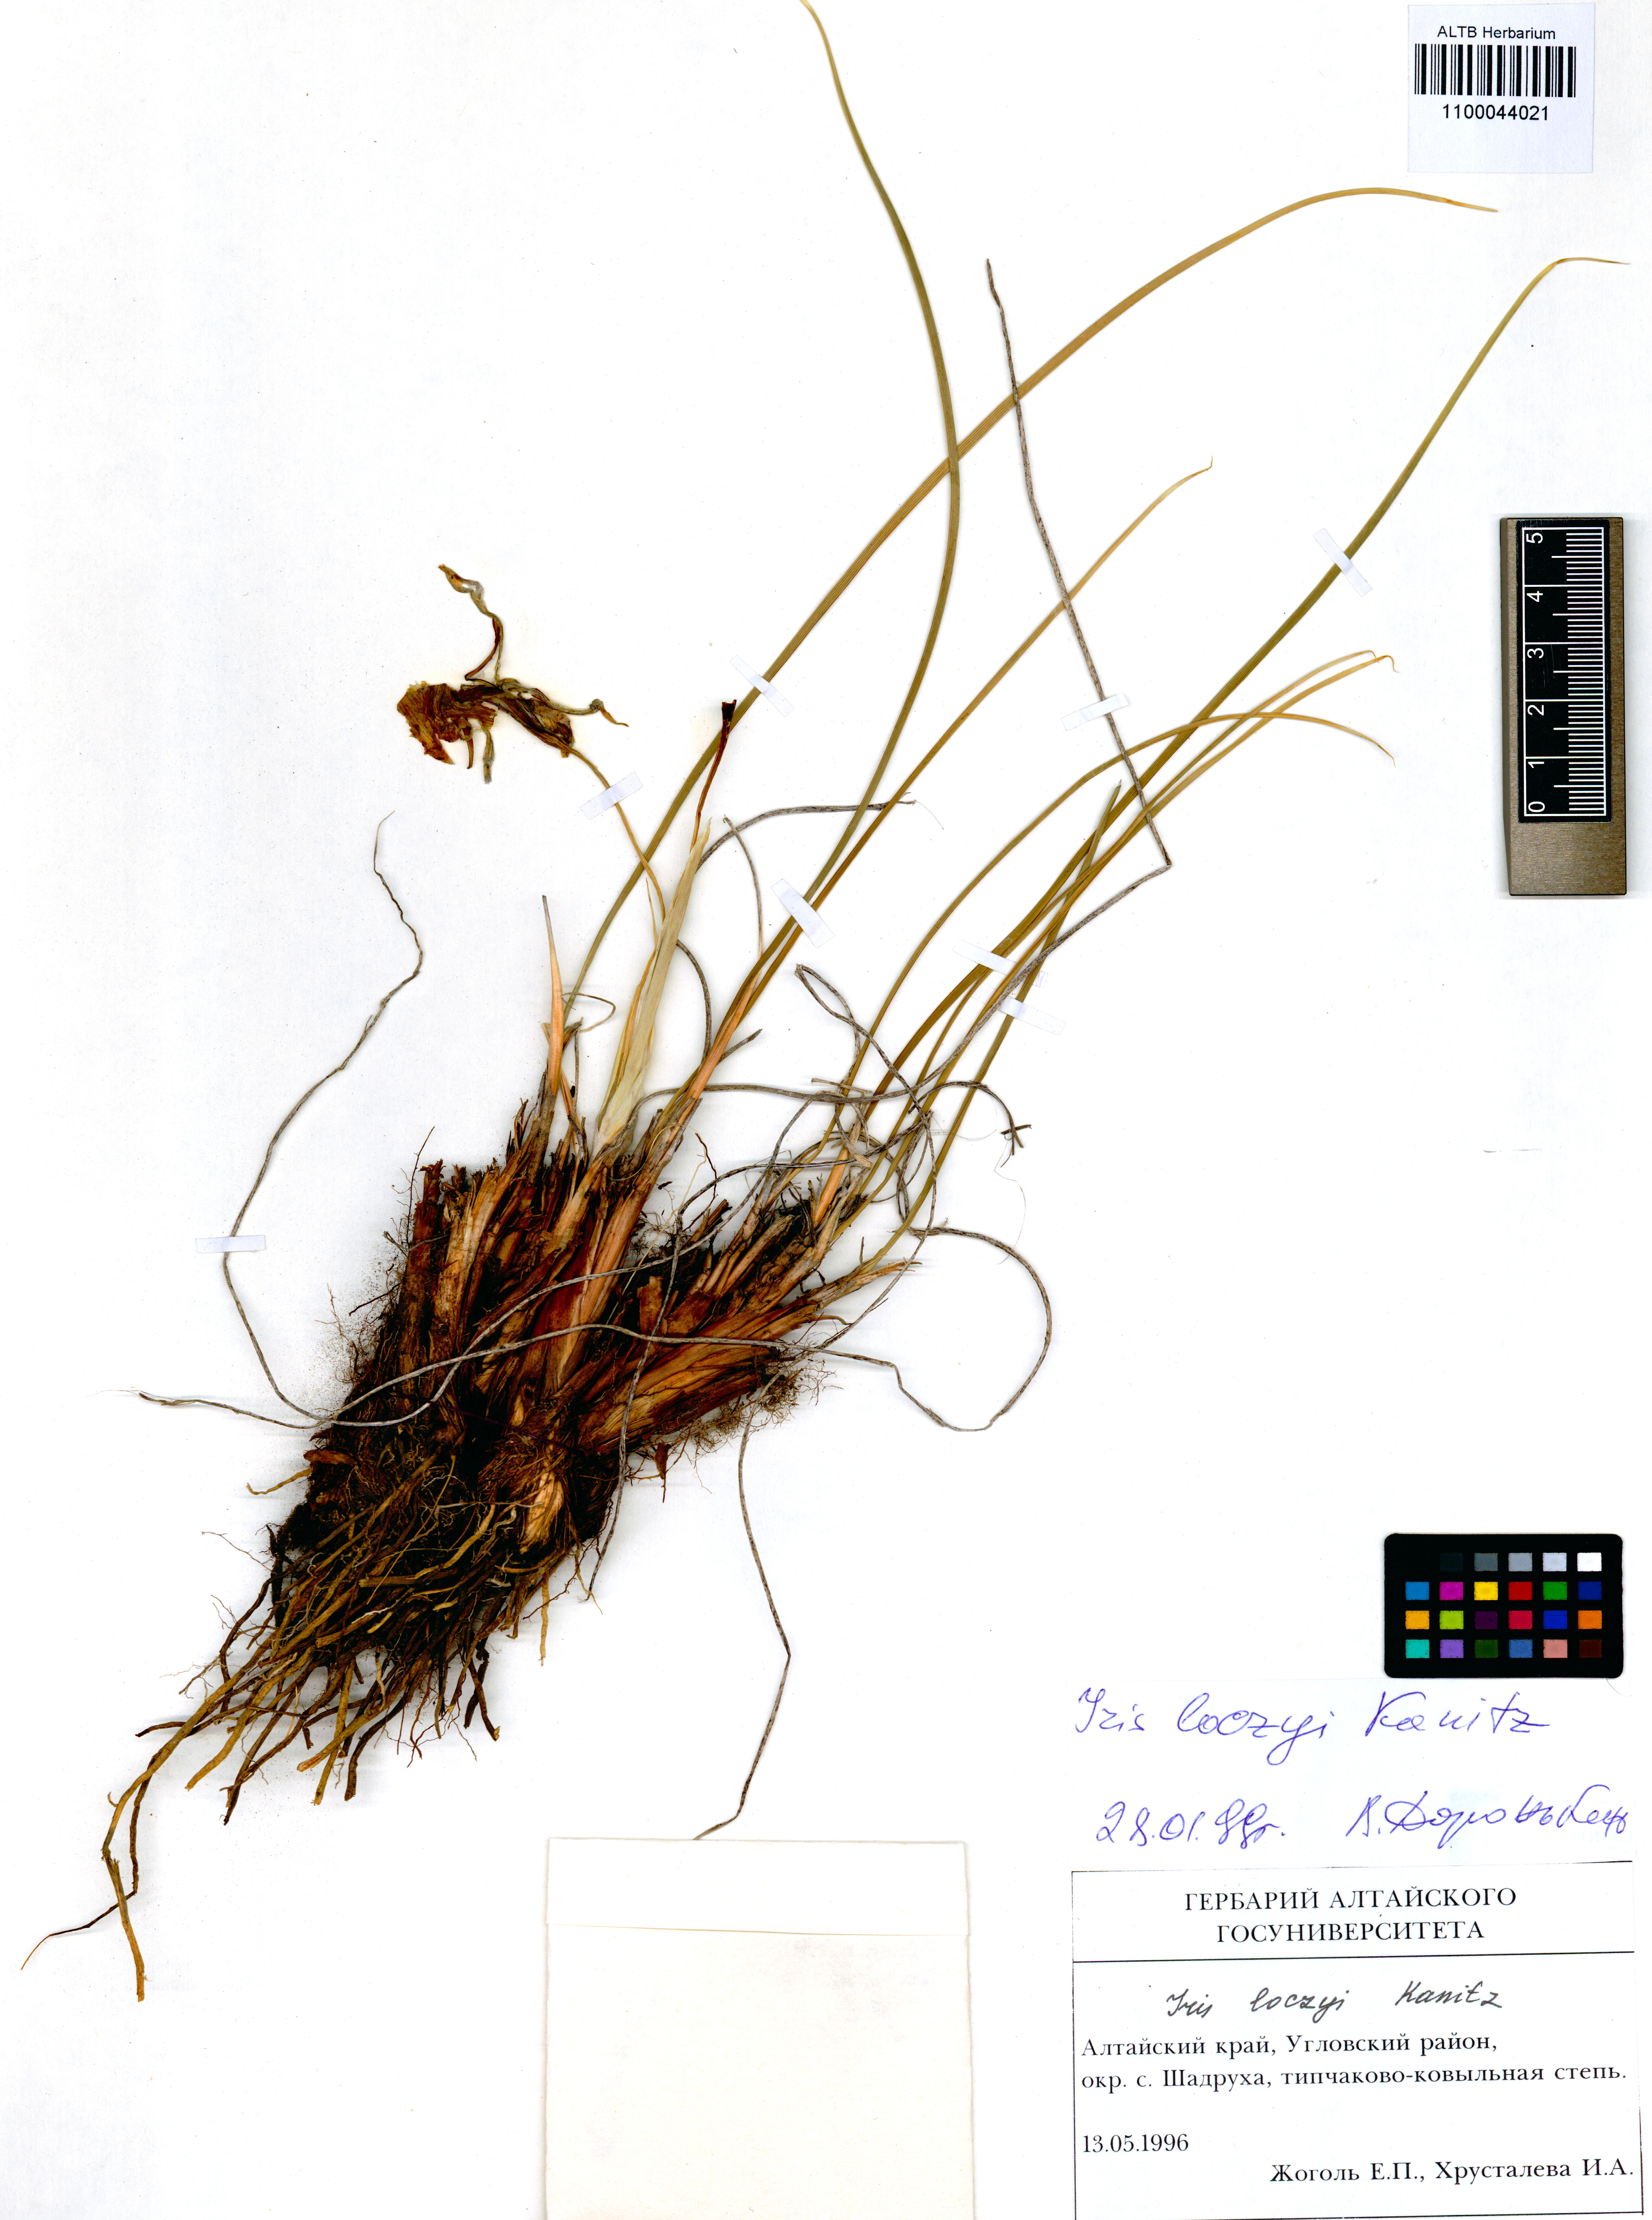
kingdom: Plantae
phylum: Tracheophyta
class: Liliopsida
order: Asparagales
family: Iridaceae
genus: Iris
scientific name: Iris loczyi
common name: Tian shan mountain iris
